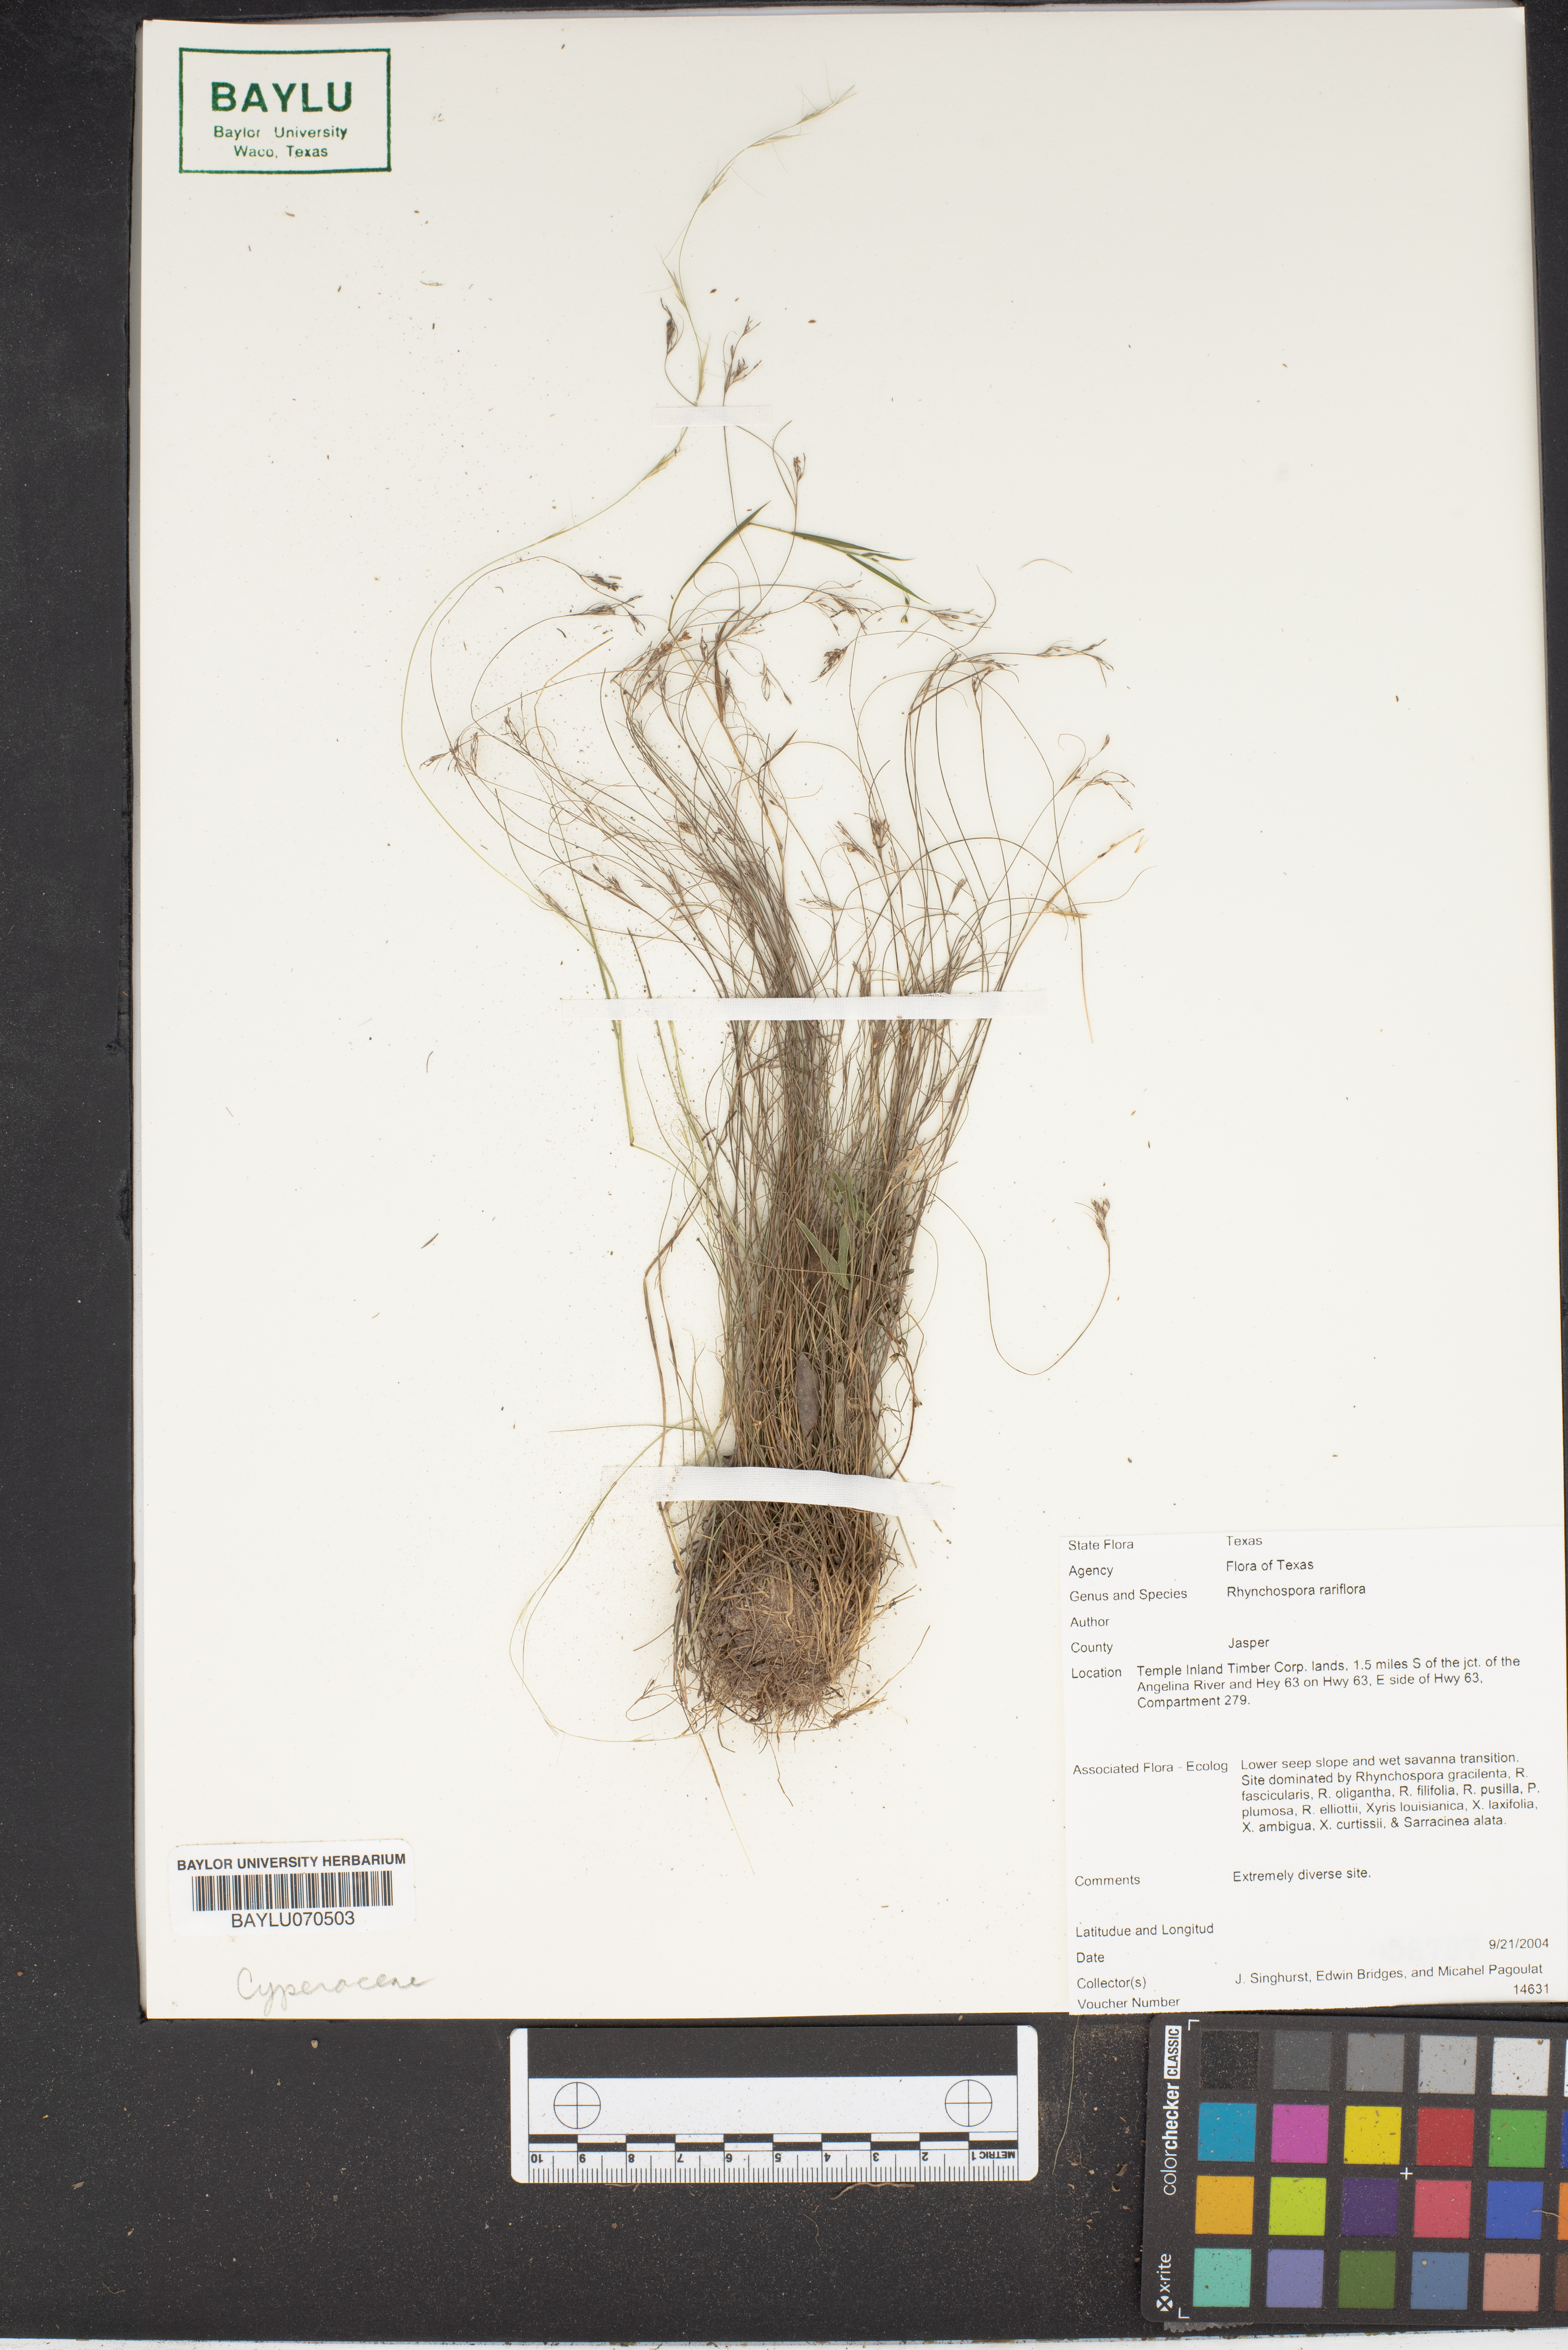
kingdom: Plantae
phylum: Tracheophyta
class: Liliopsida
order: Poales
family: Cyperaceae
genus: Rhynchospora
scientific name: Rhynchospora rariflora
